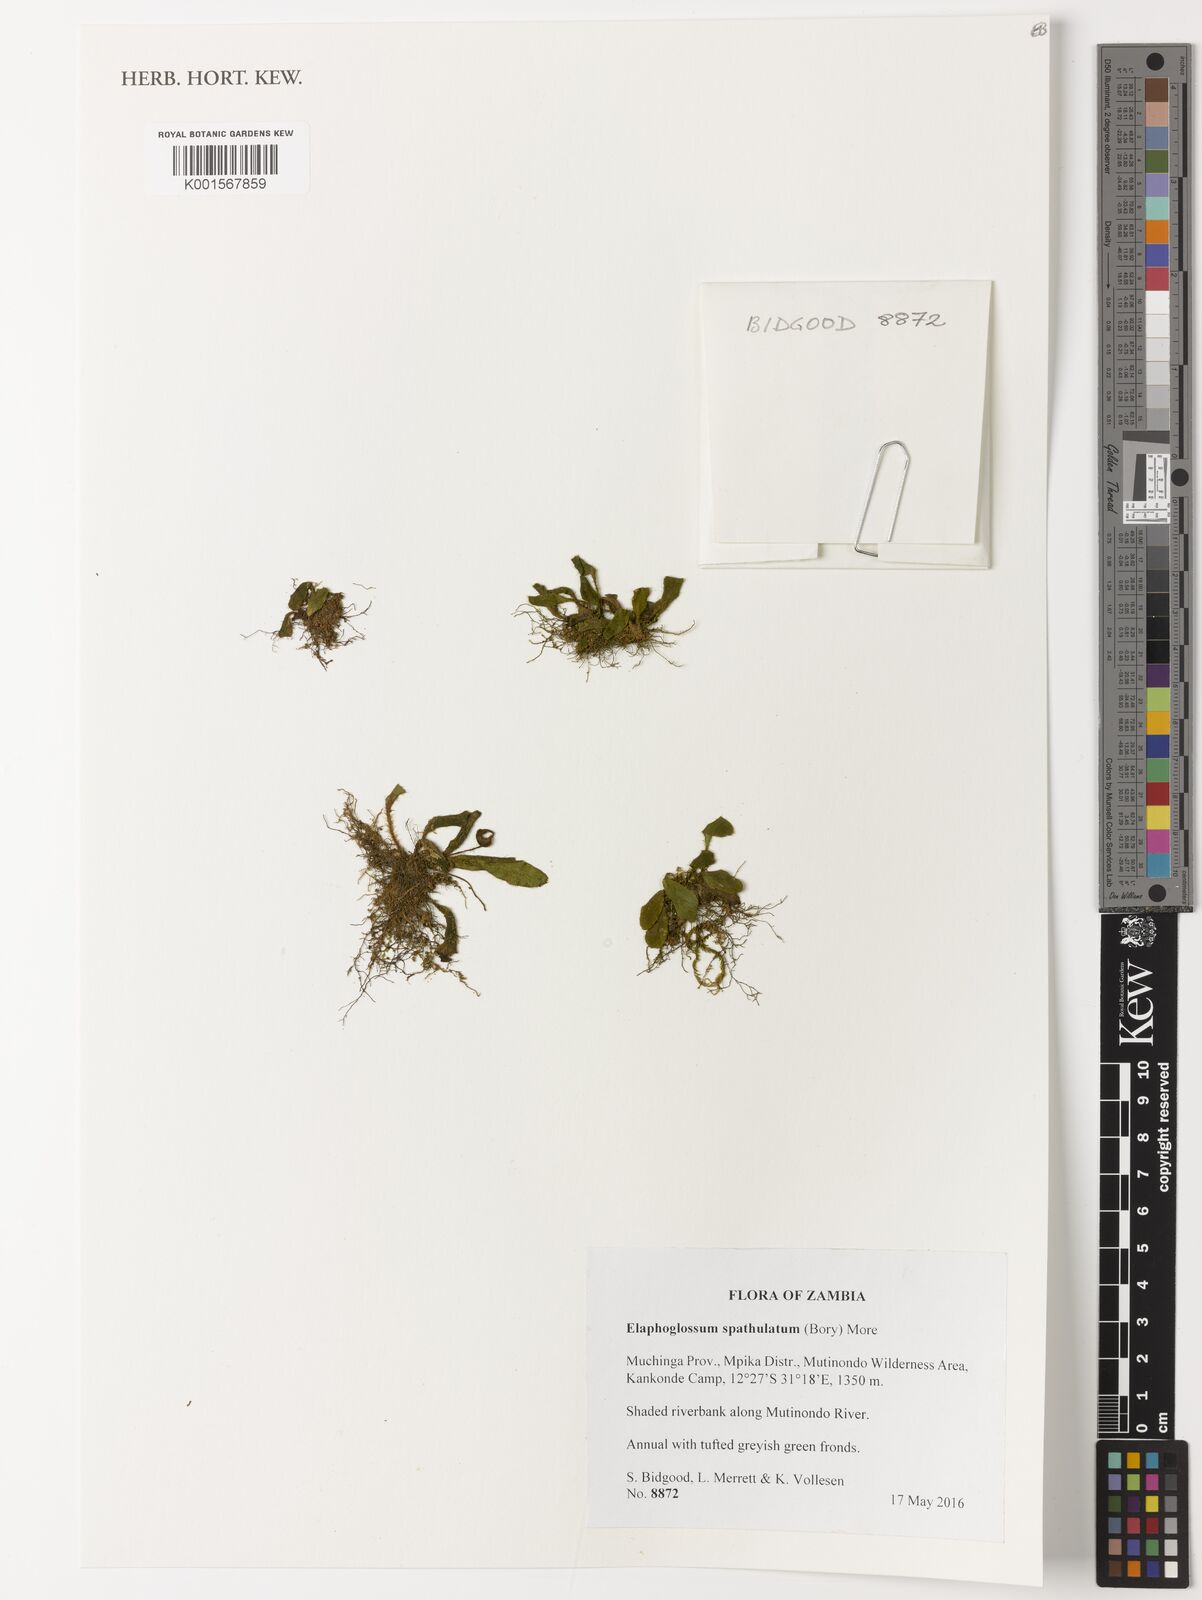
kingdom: Plantae
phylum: Tracheophyta
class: Polypodiopsida
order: Polypodiales
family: Dryopteridaceae
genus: Elaphoglossum
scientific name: Elaphoglossum spatulatum
